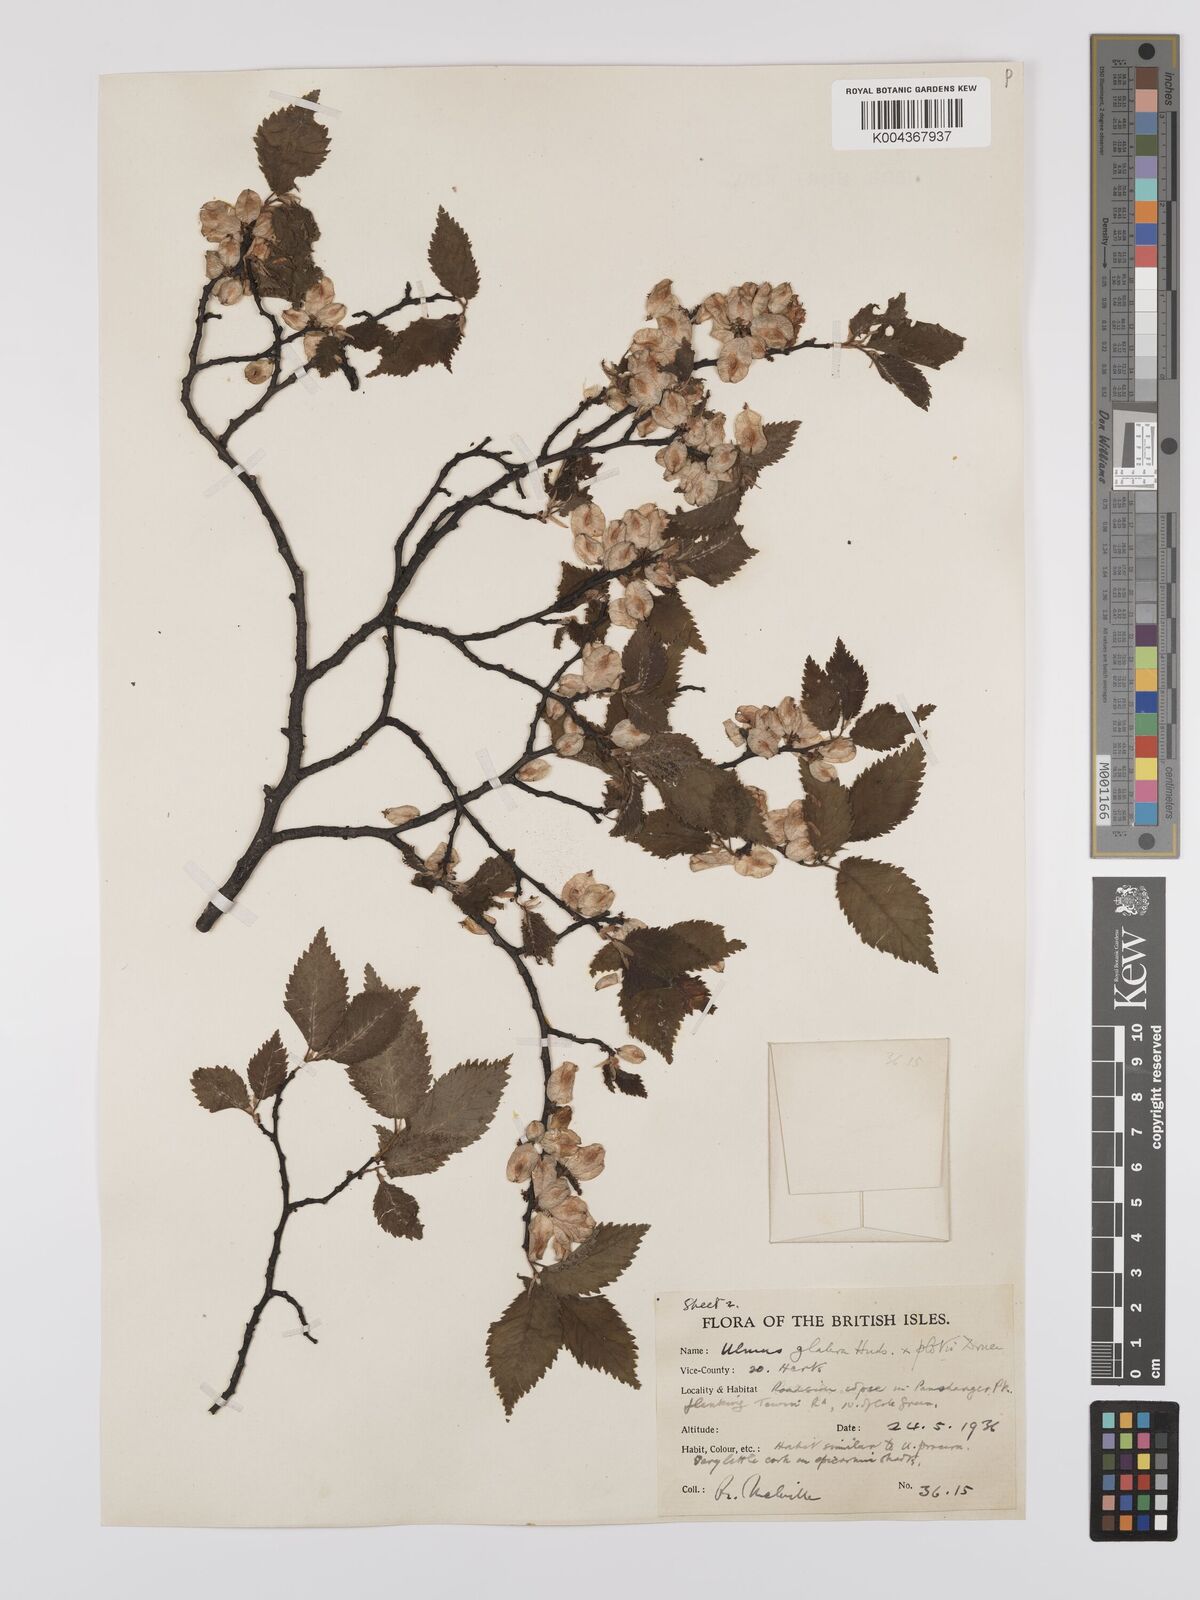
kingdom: Plantae
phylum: Tracheophyta
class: Magnoliopsida
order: Rosales
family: Ulmaceae
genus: Ulmus
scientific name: Ulmus glabra
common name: Wych elm
